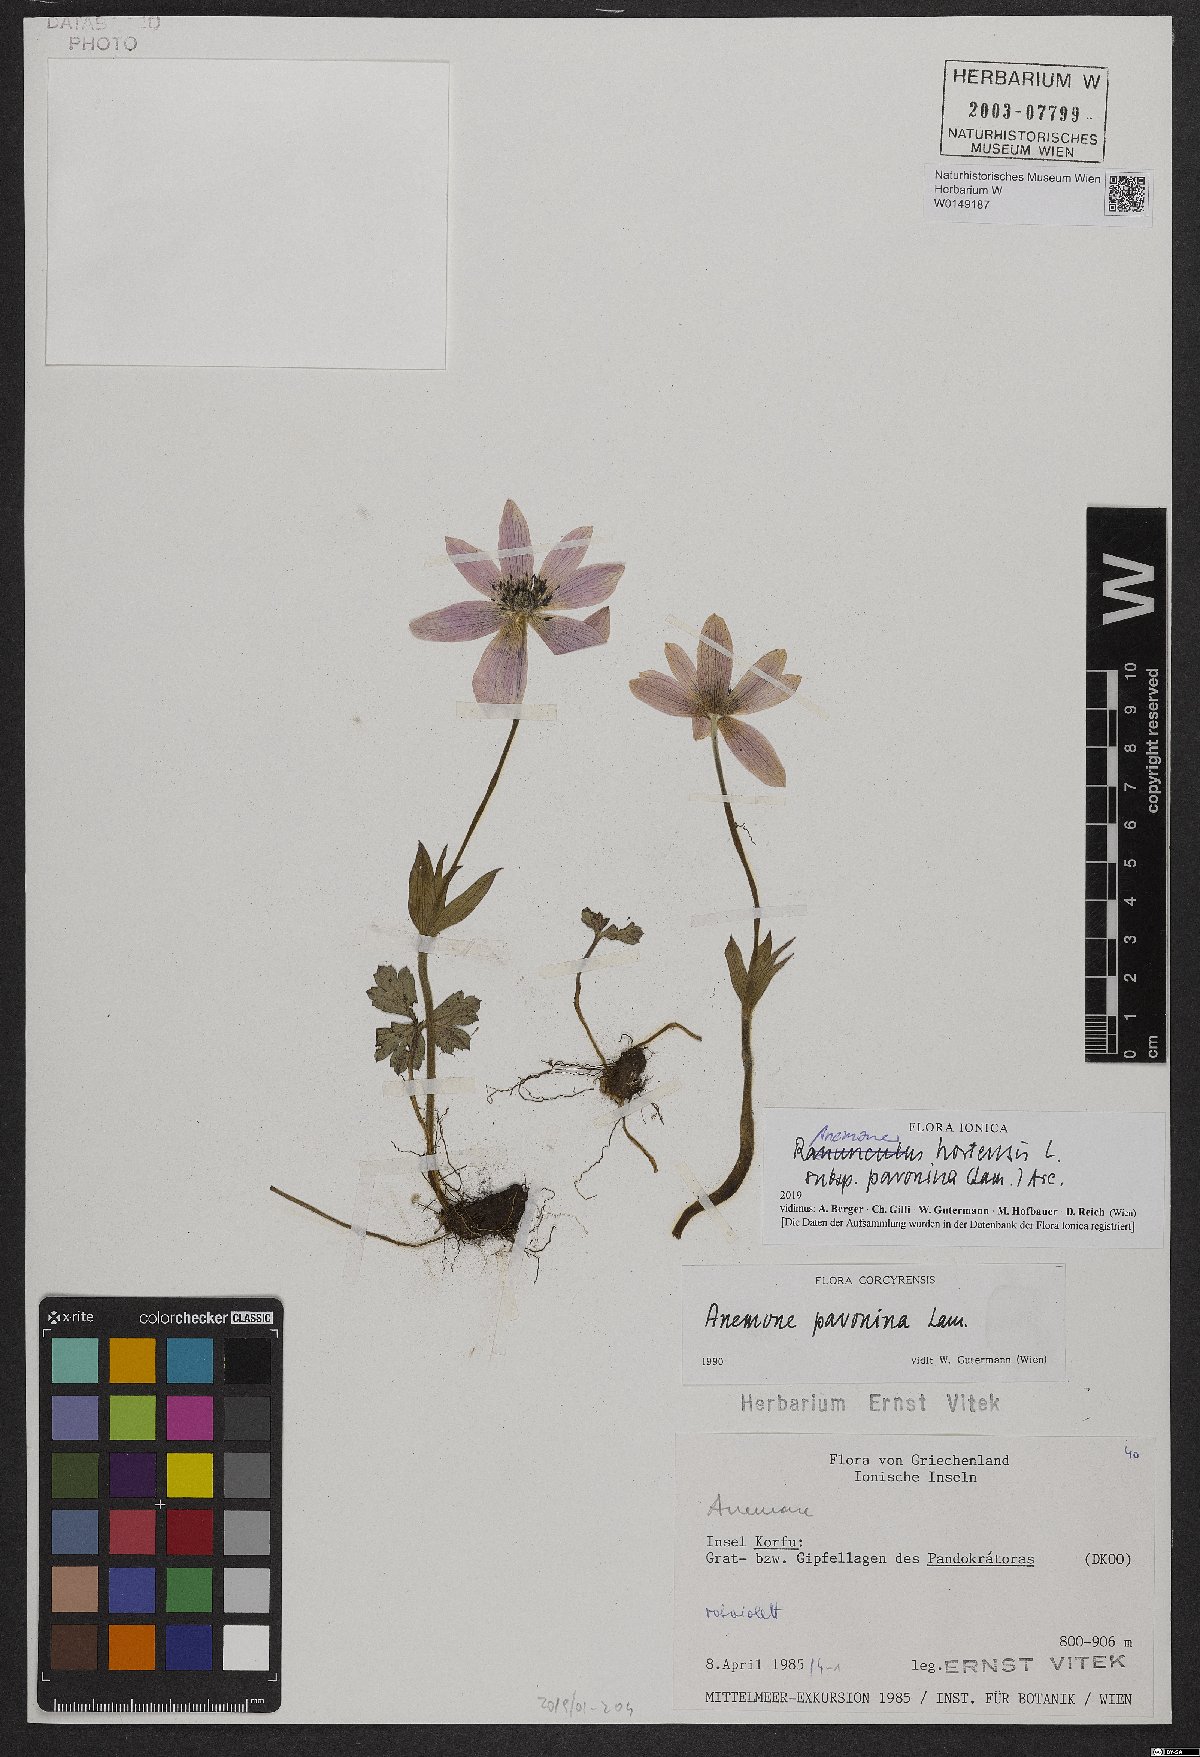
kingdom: Plantae
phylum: Tracheophyta
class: Magnoliopsida
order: Ranunculales
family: Ranunculaceae
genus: Anemone
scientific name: Anemone pavonina
